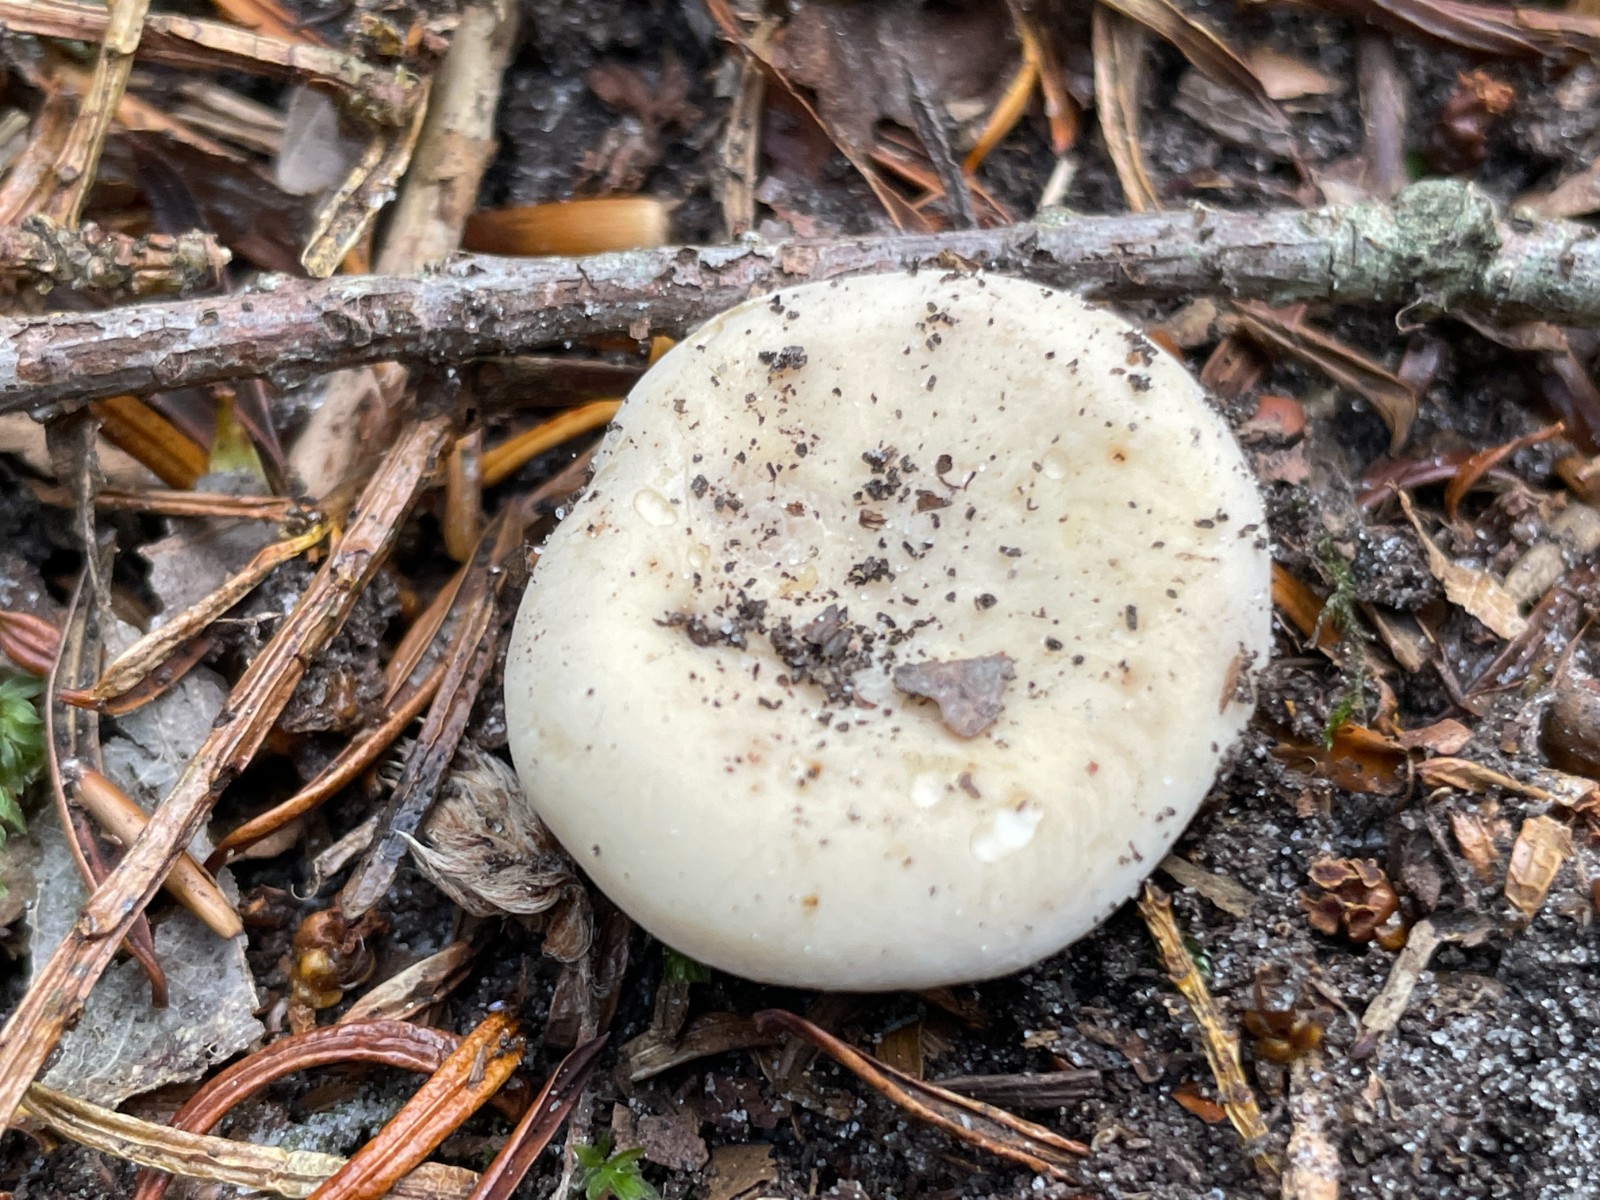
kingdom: Fungi
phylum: Basidiomycota
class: Agaricomycetes
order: Russulales
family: Russulaceae
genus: Russula
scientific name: Russula acrifolia
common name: skarpbladet skørhat
